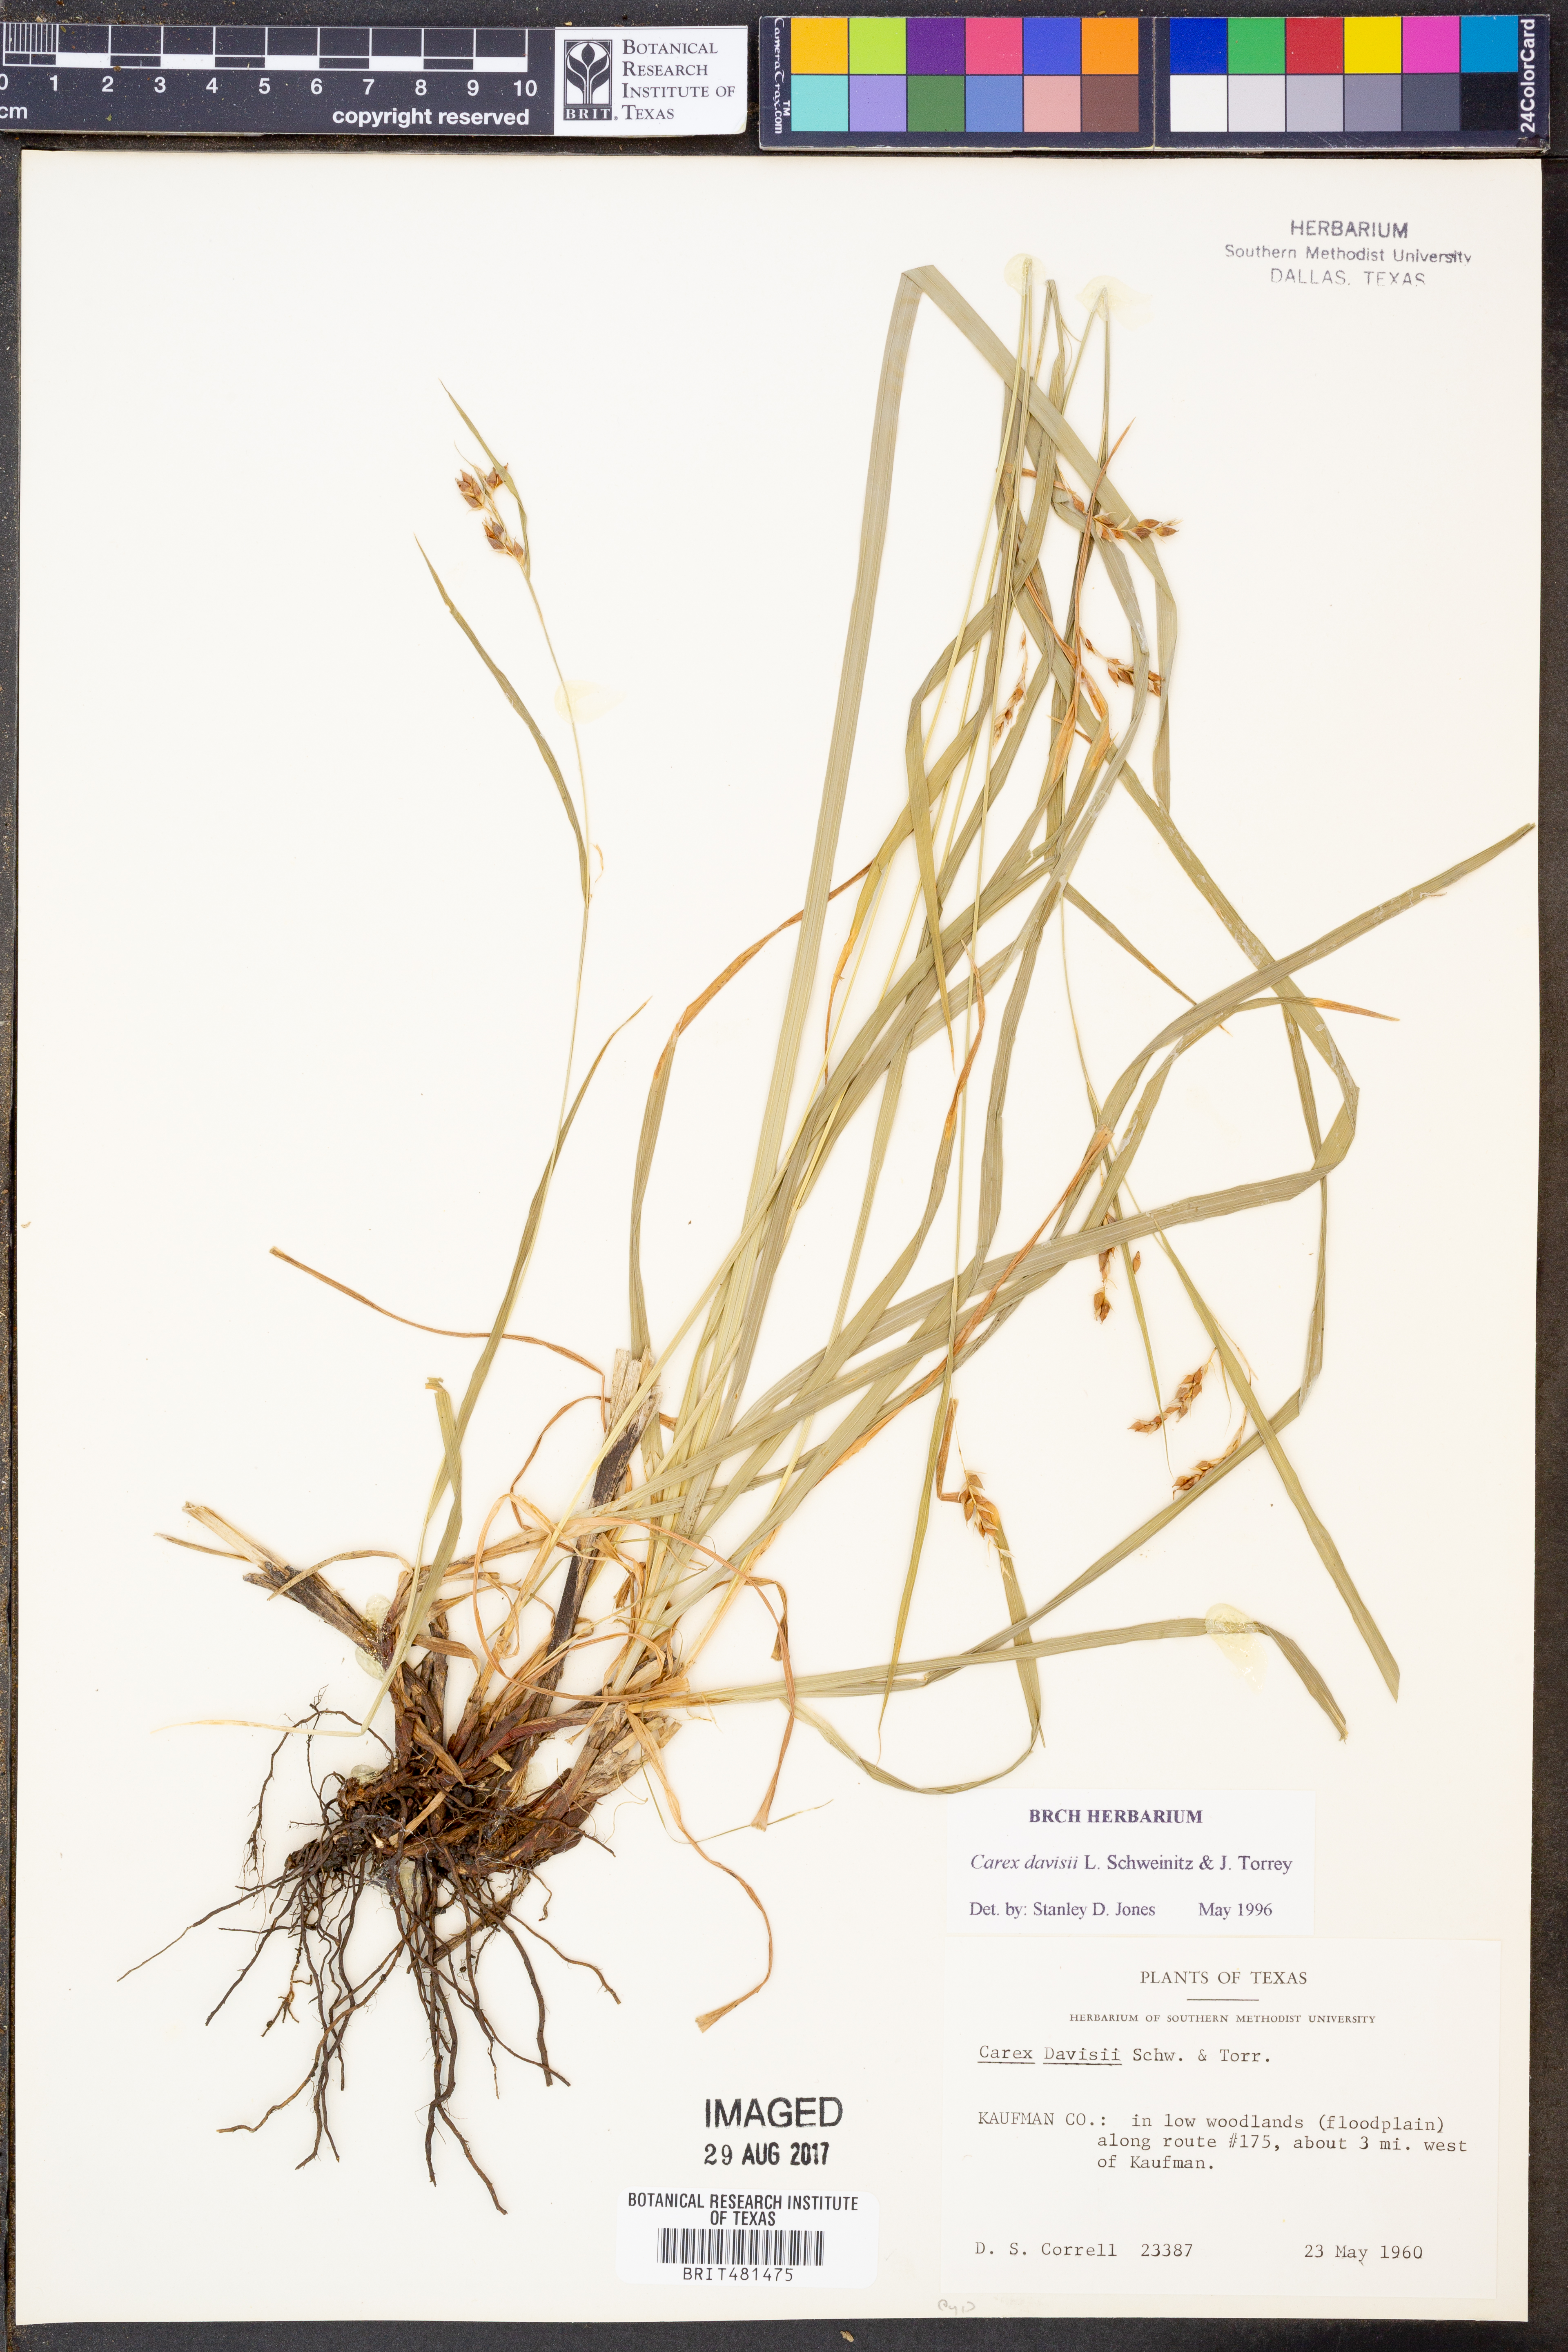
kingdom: Plantae
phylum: Tracheophyta
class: Liliopsida
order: Poales
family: Cyperaceae
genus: Carex
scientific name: Carex davisii
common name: Davis' sedge
